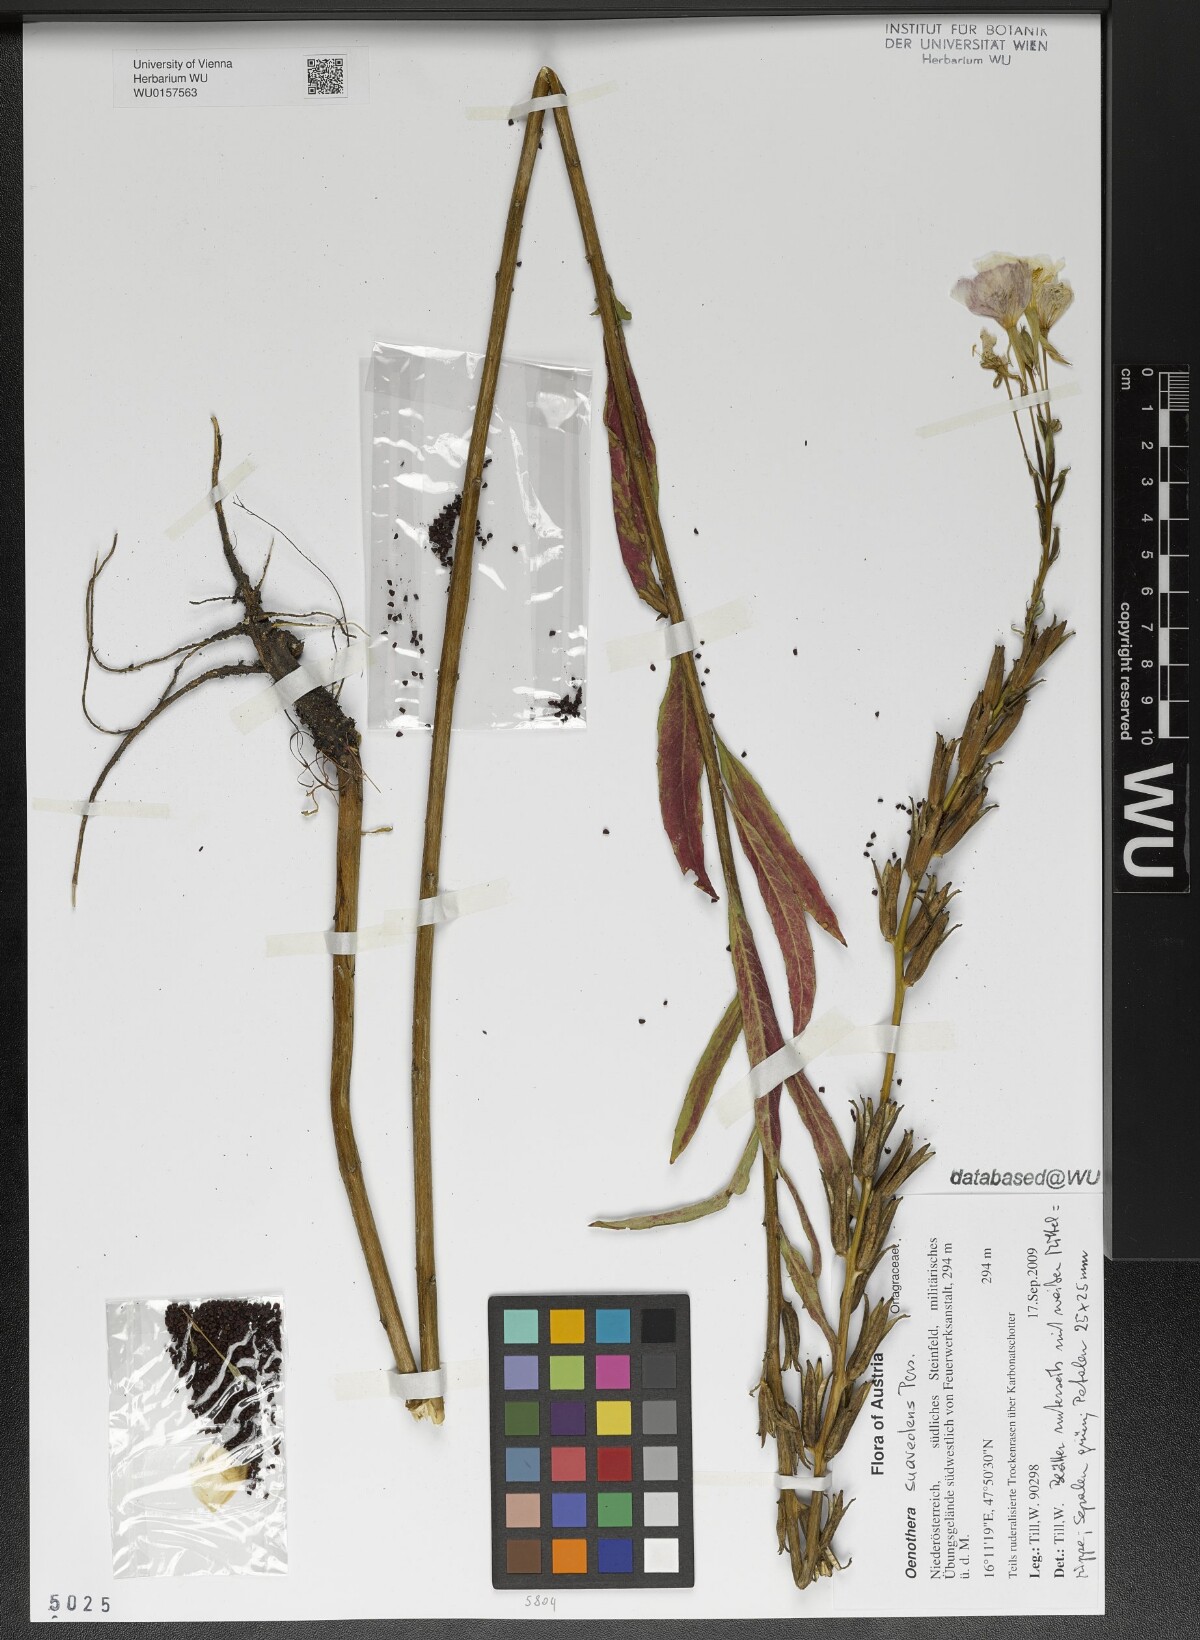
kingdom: Plantae
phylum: Tracheophyta
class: Magnoliopsida
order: Myrtales
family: Onagraceae
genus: Oenothera
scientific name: Oenothera biennis
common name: Common evening-primrose
